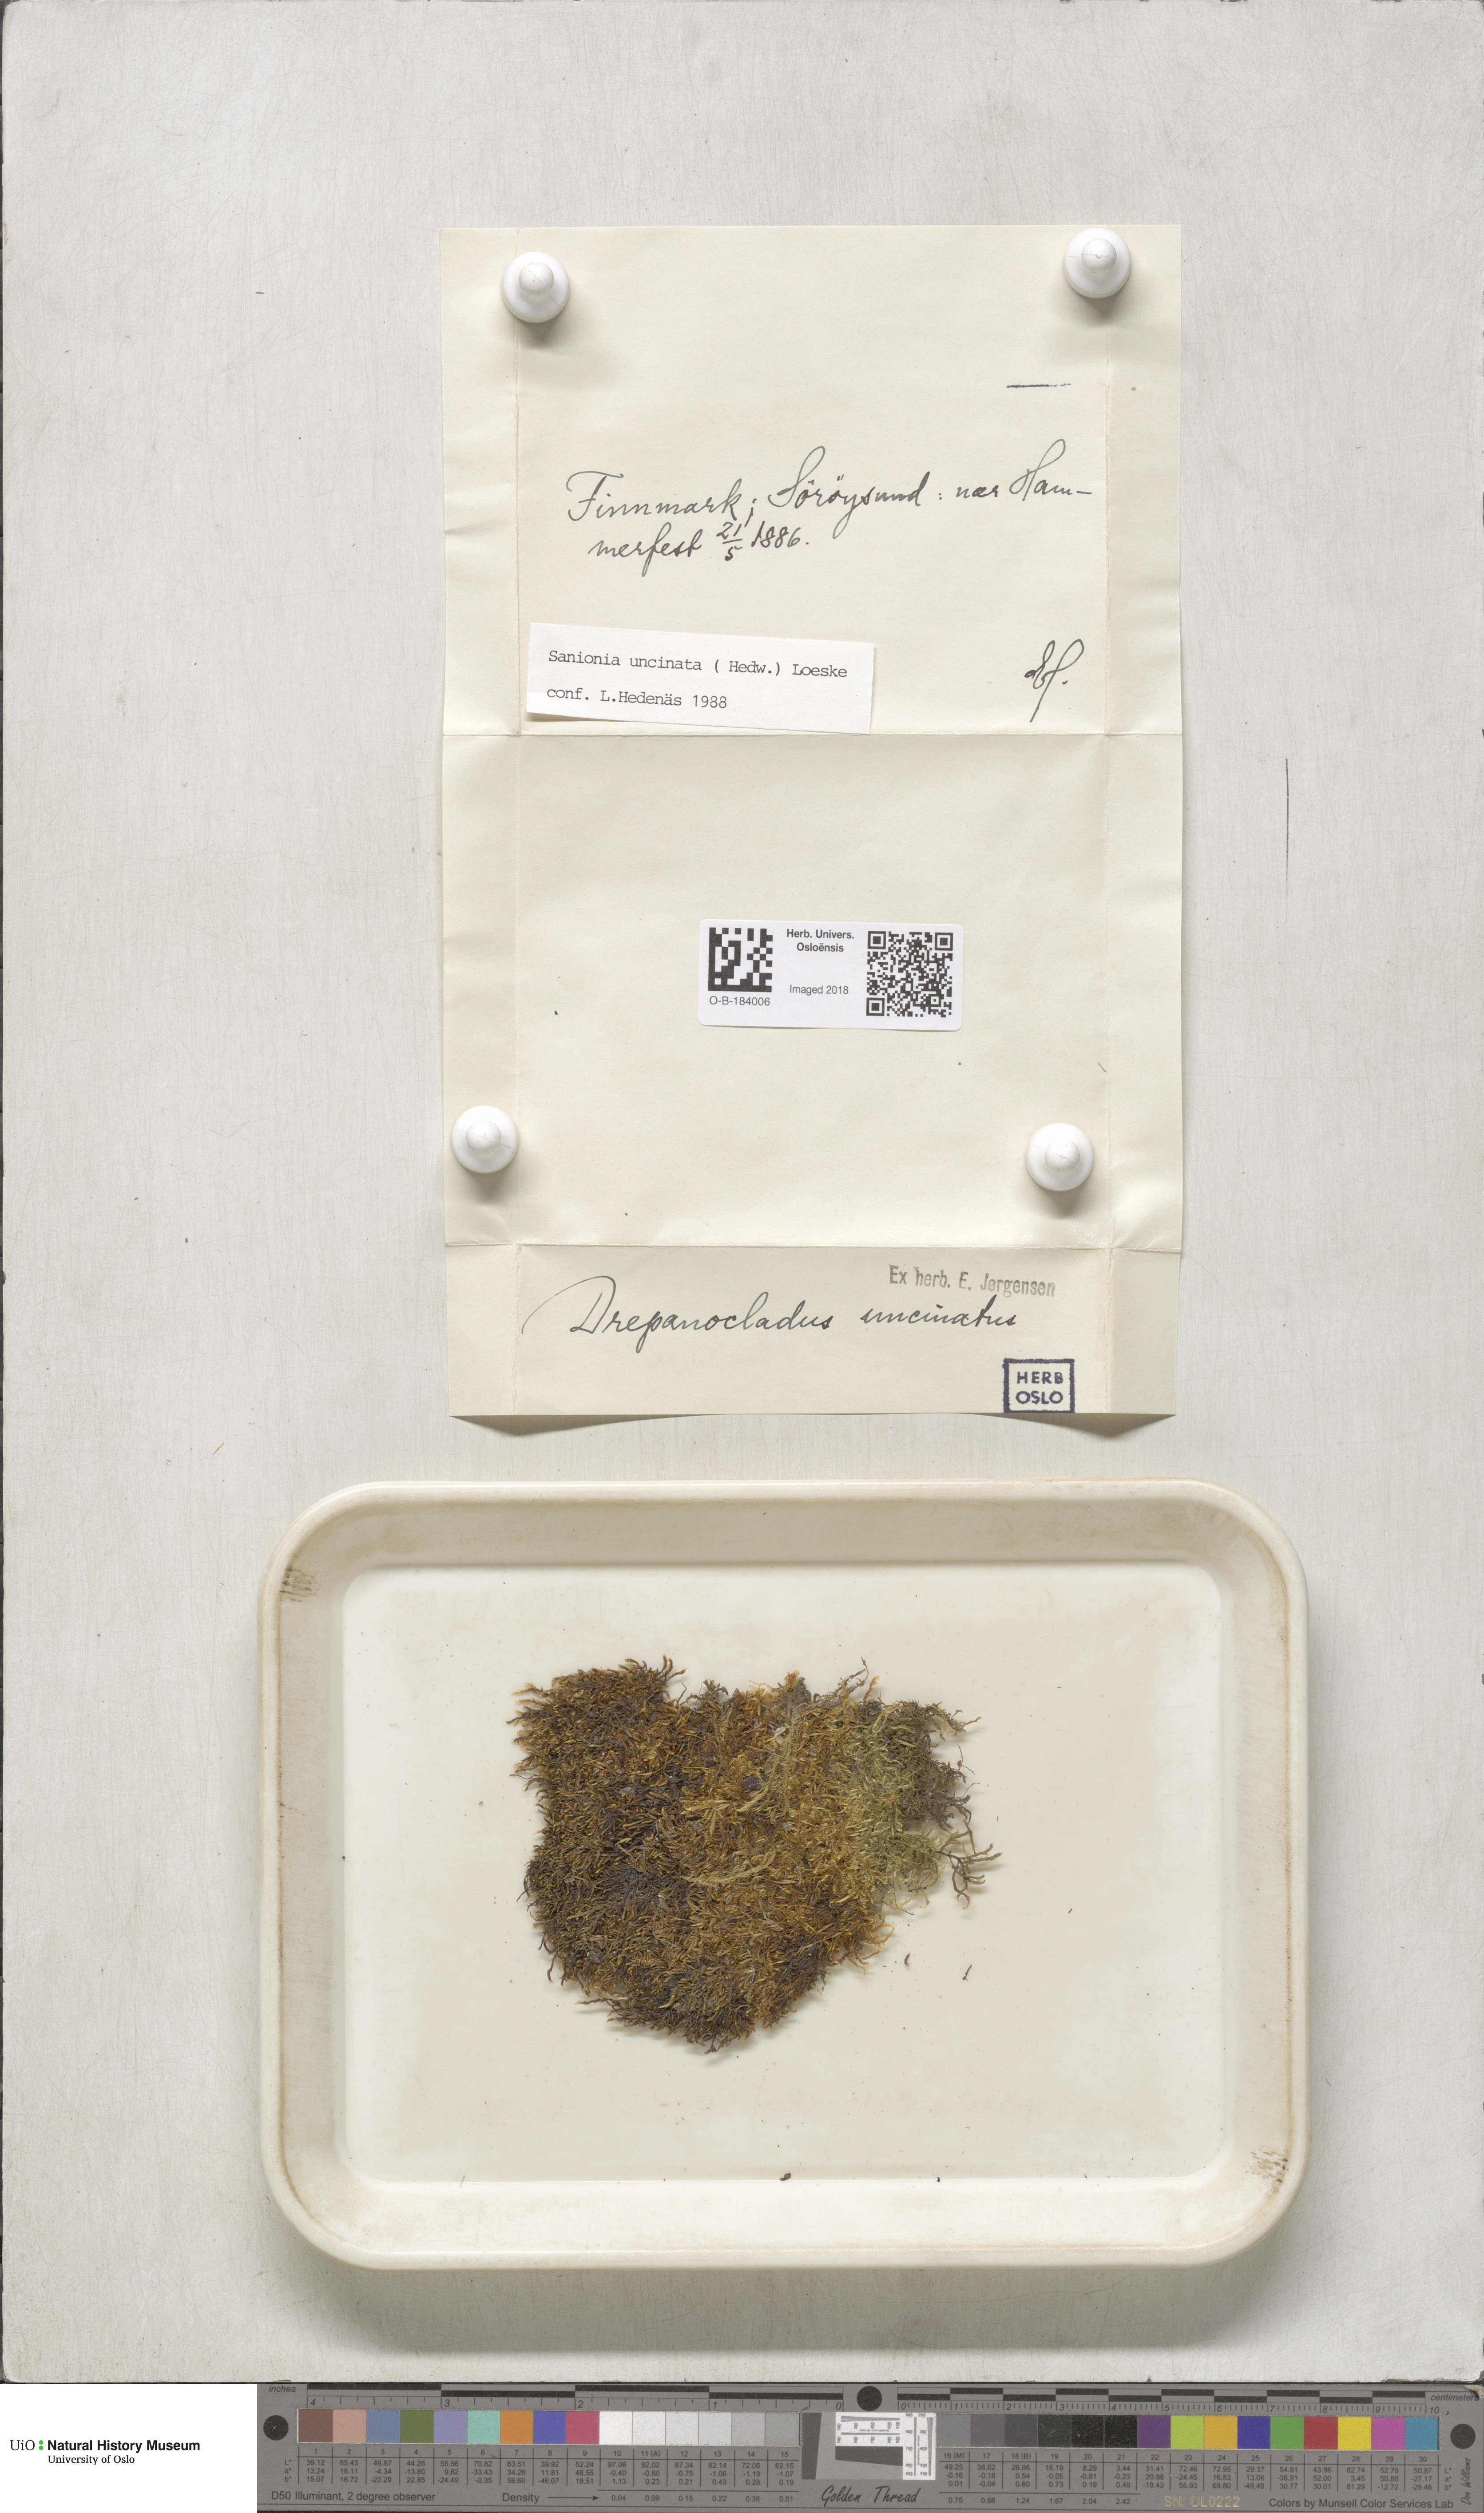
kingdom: Plantae
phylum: Bryophyta
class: Bryopsida
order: Hypnales
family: Scorpidiaceae
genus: Sanionia
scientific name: Sanionia uncinata
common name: Sickle moss
